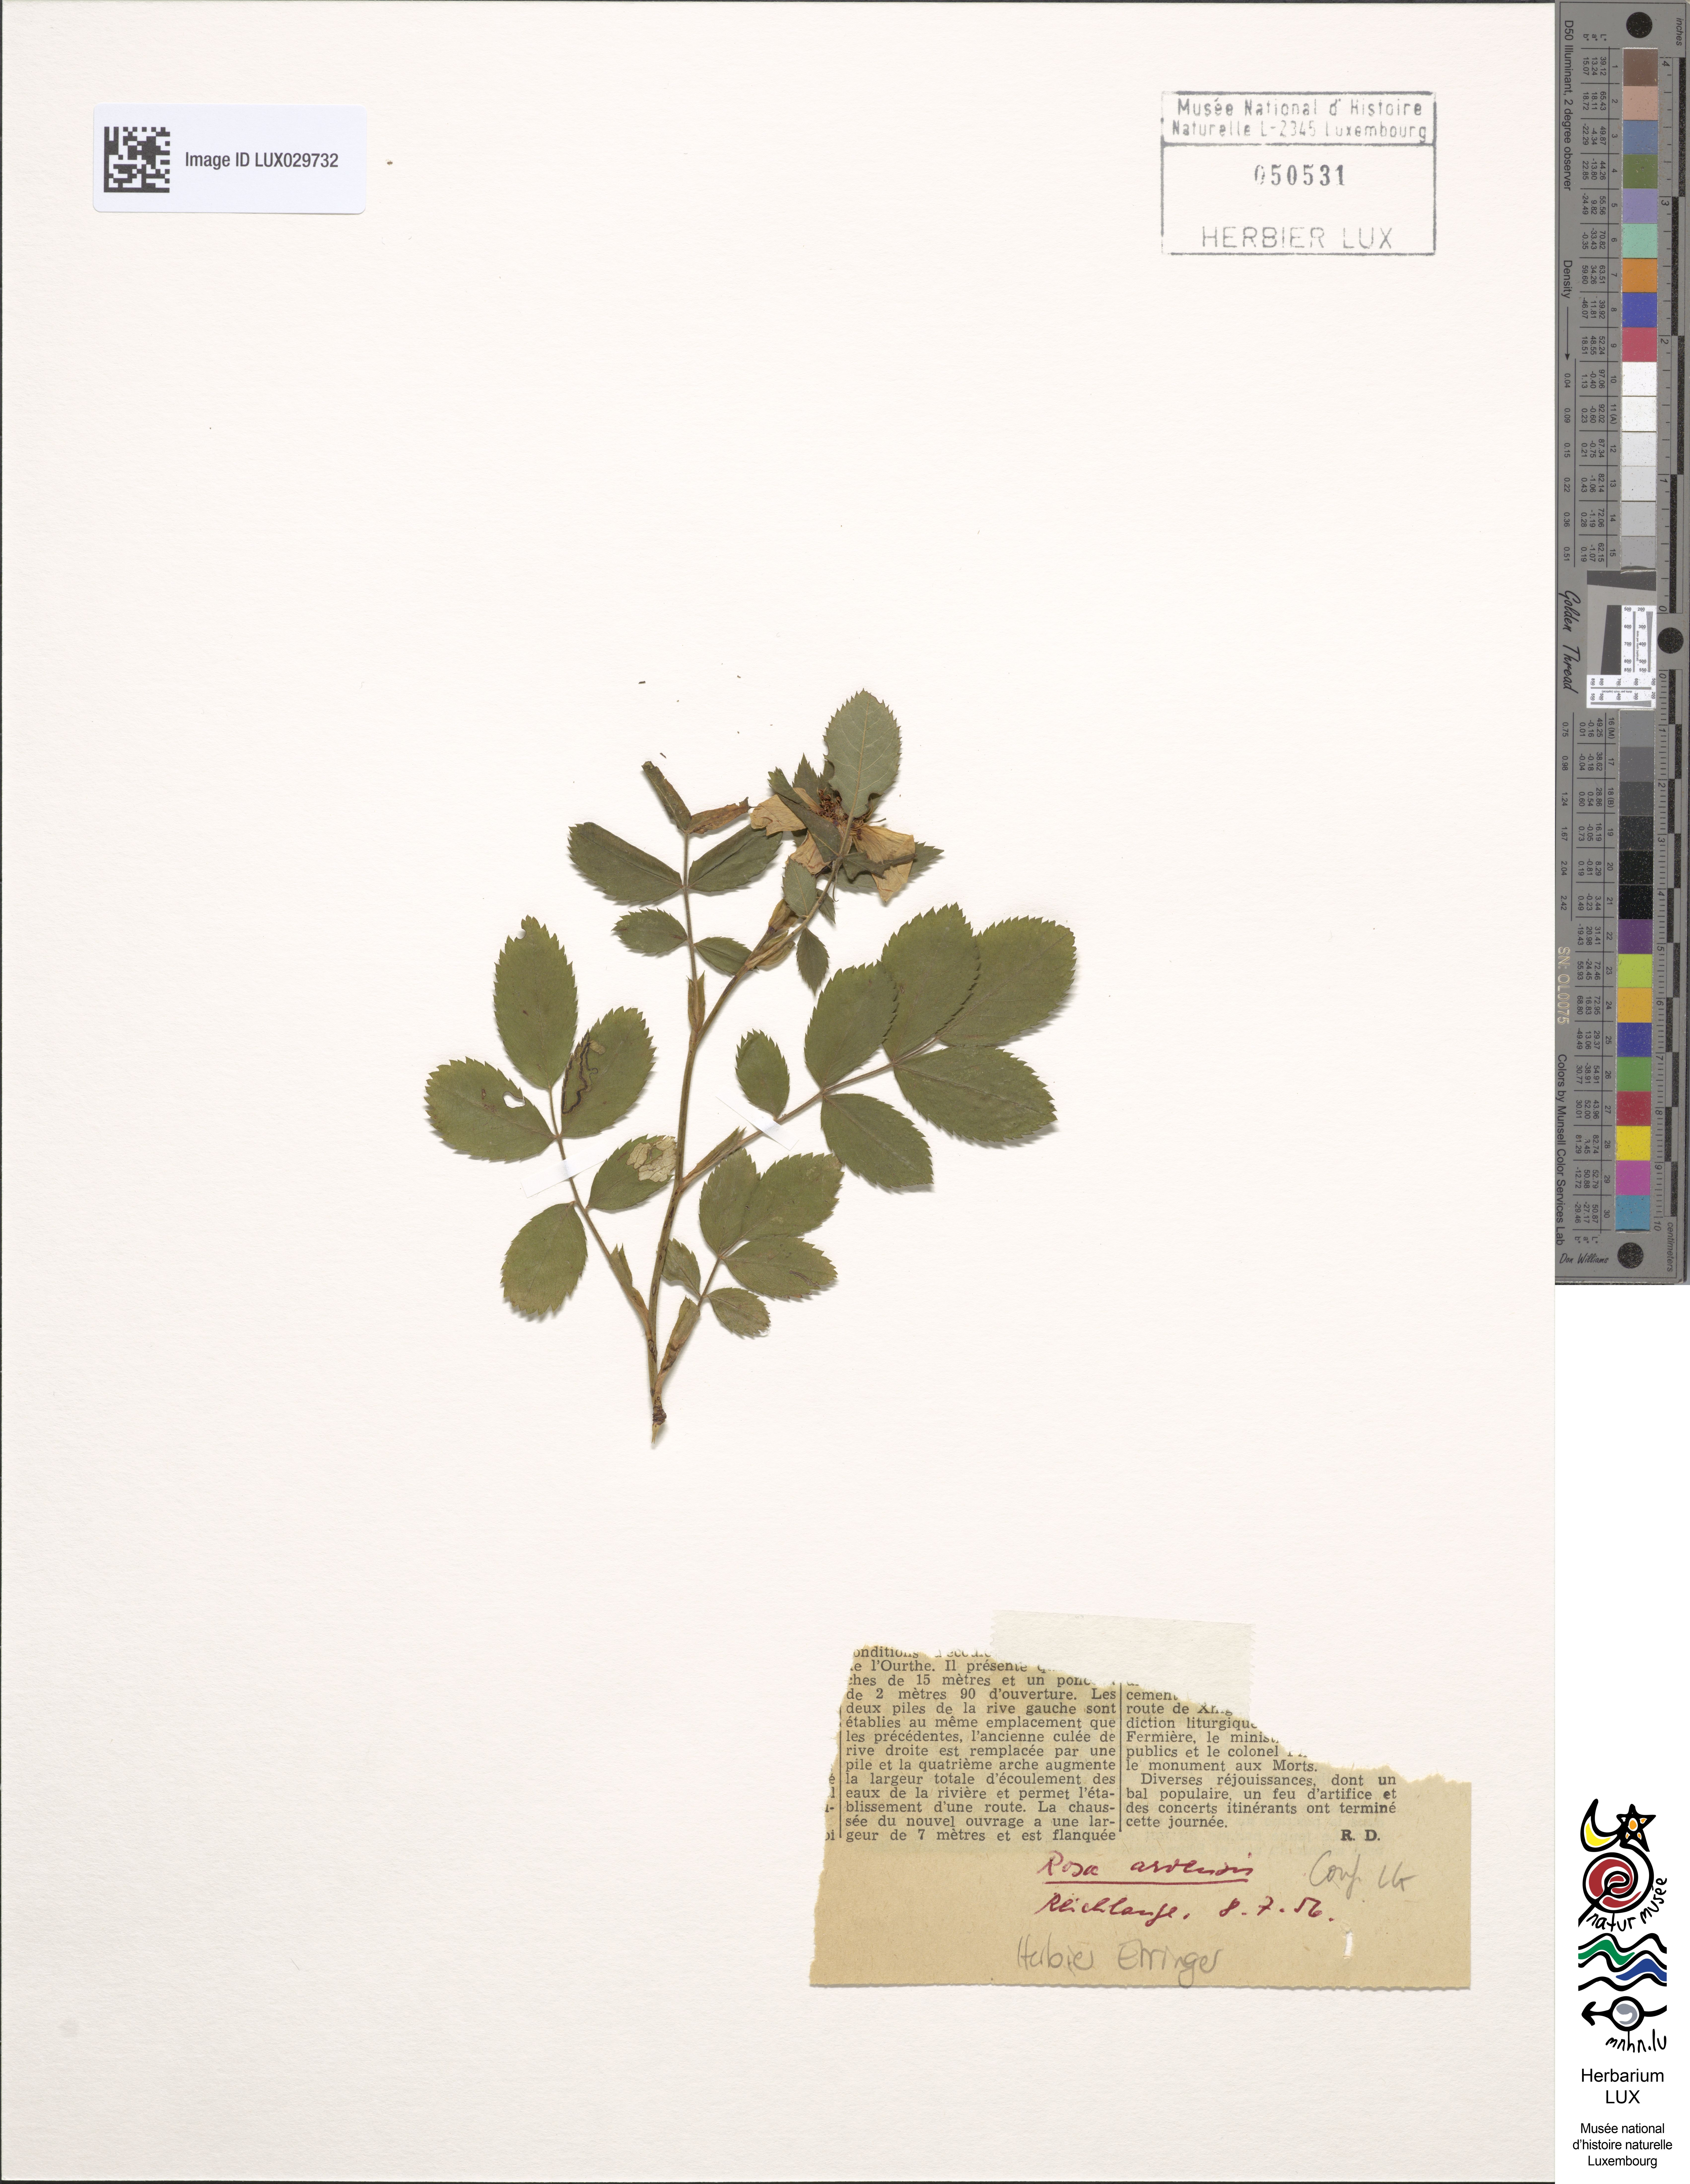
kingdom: Plantae
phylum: Tracheophyta
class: Magnoliopsida
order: Rosales
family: Rosaceae
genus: Rosa
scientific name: Rosa arvensis
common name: Field rose
